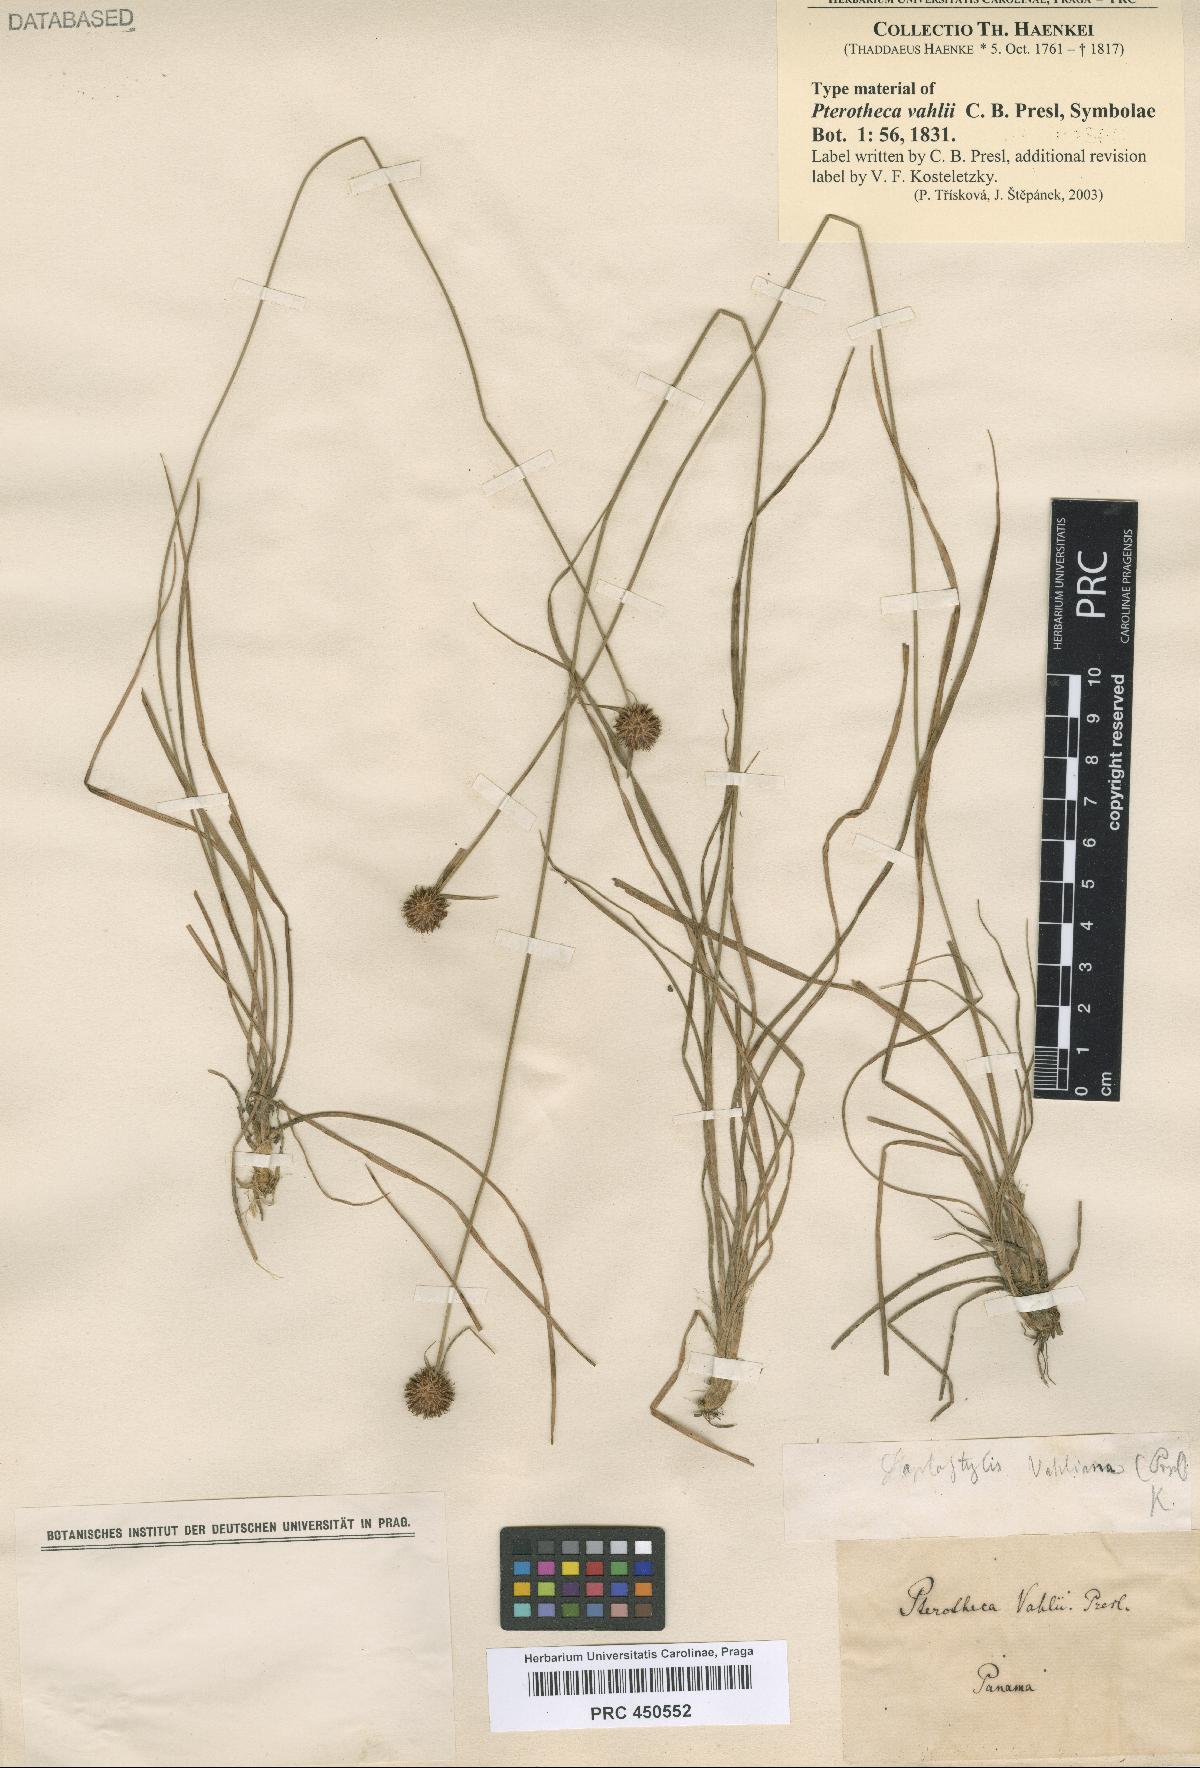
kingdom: Plantae
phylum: Tracheophyta
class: Liliopsida
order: Poales
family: Cyperaceae
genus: Rhynchospora
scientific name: Rhynchospora barbata
